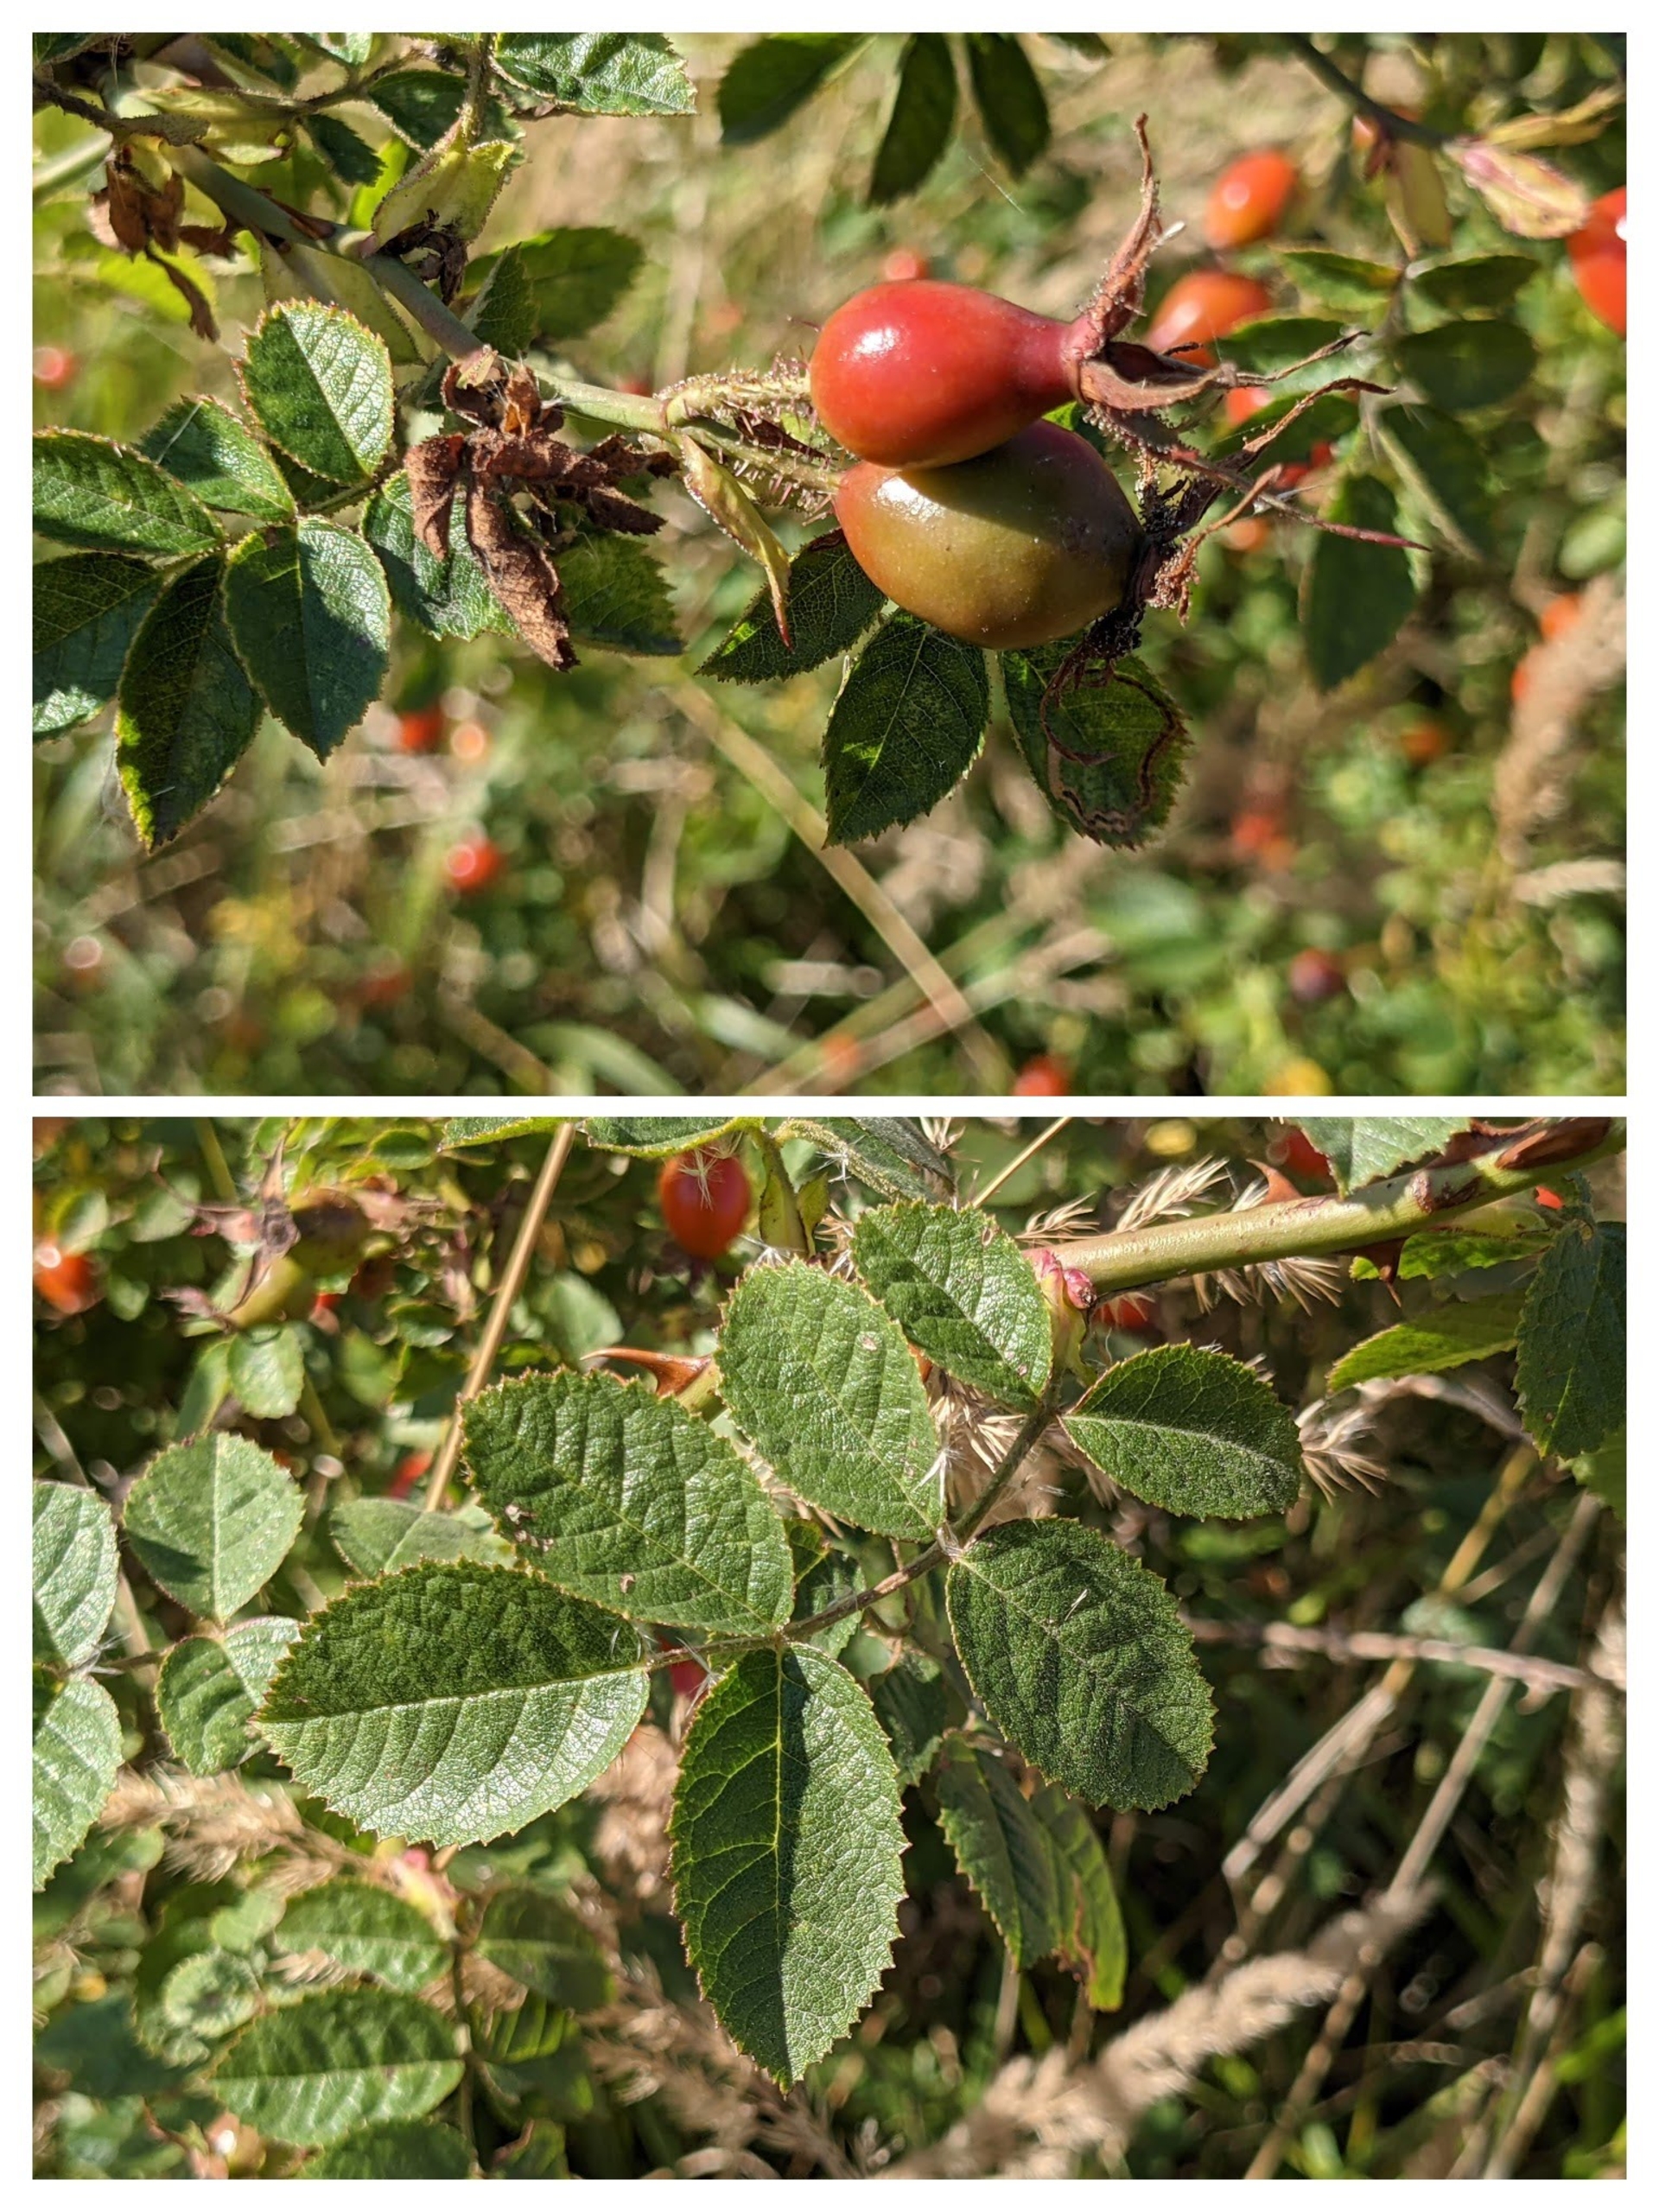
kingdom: Plantae
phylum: Tracheophyta
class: Magnoliopsida
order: Rosales
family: Rosaceae
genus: Rosa
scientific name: Rosa rubiginosa
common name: Æble-rose
